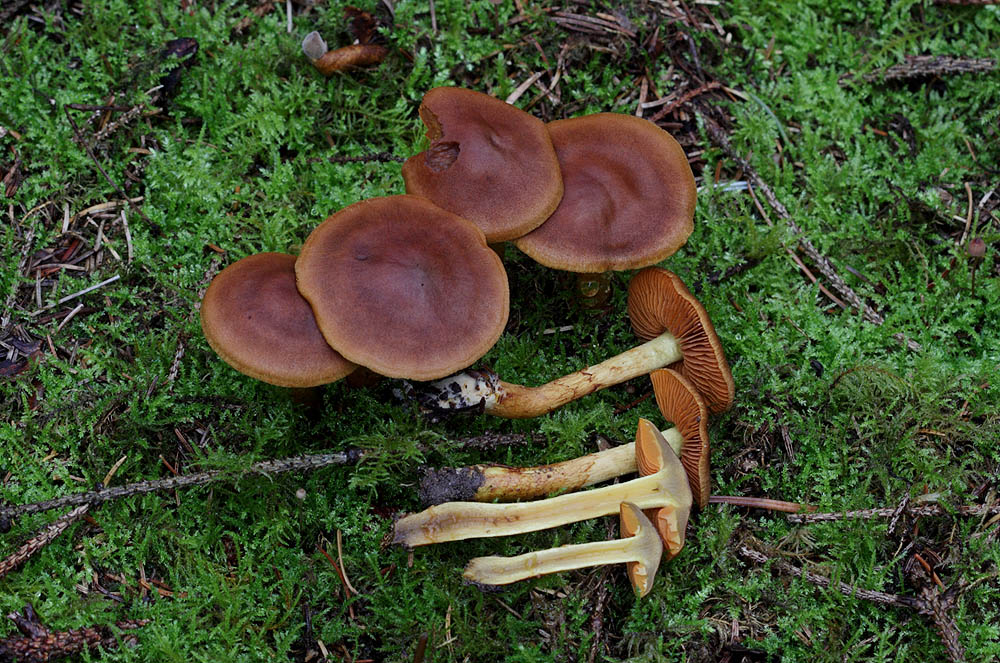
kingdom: Fungi
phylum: Basidiomycota
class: Agaricomycetes
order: Agaricales
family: Cortinariaceae
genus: Cortinarius
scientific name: Cortinarius cinnamomeus
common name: kanel-slørhat
